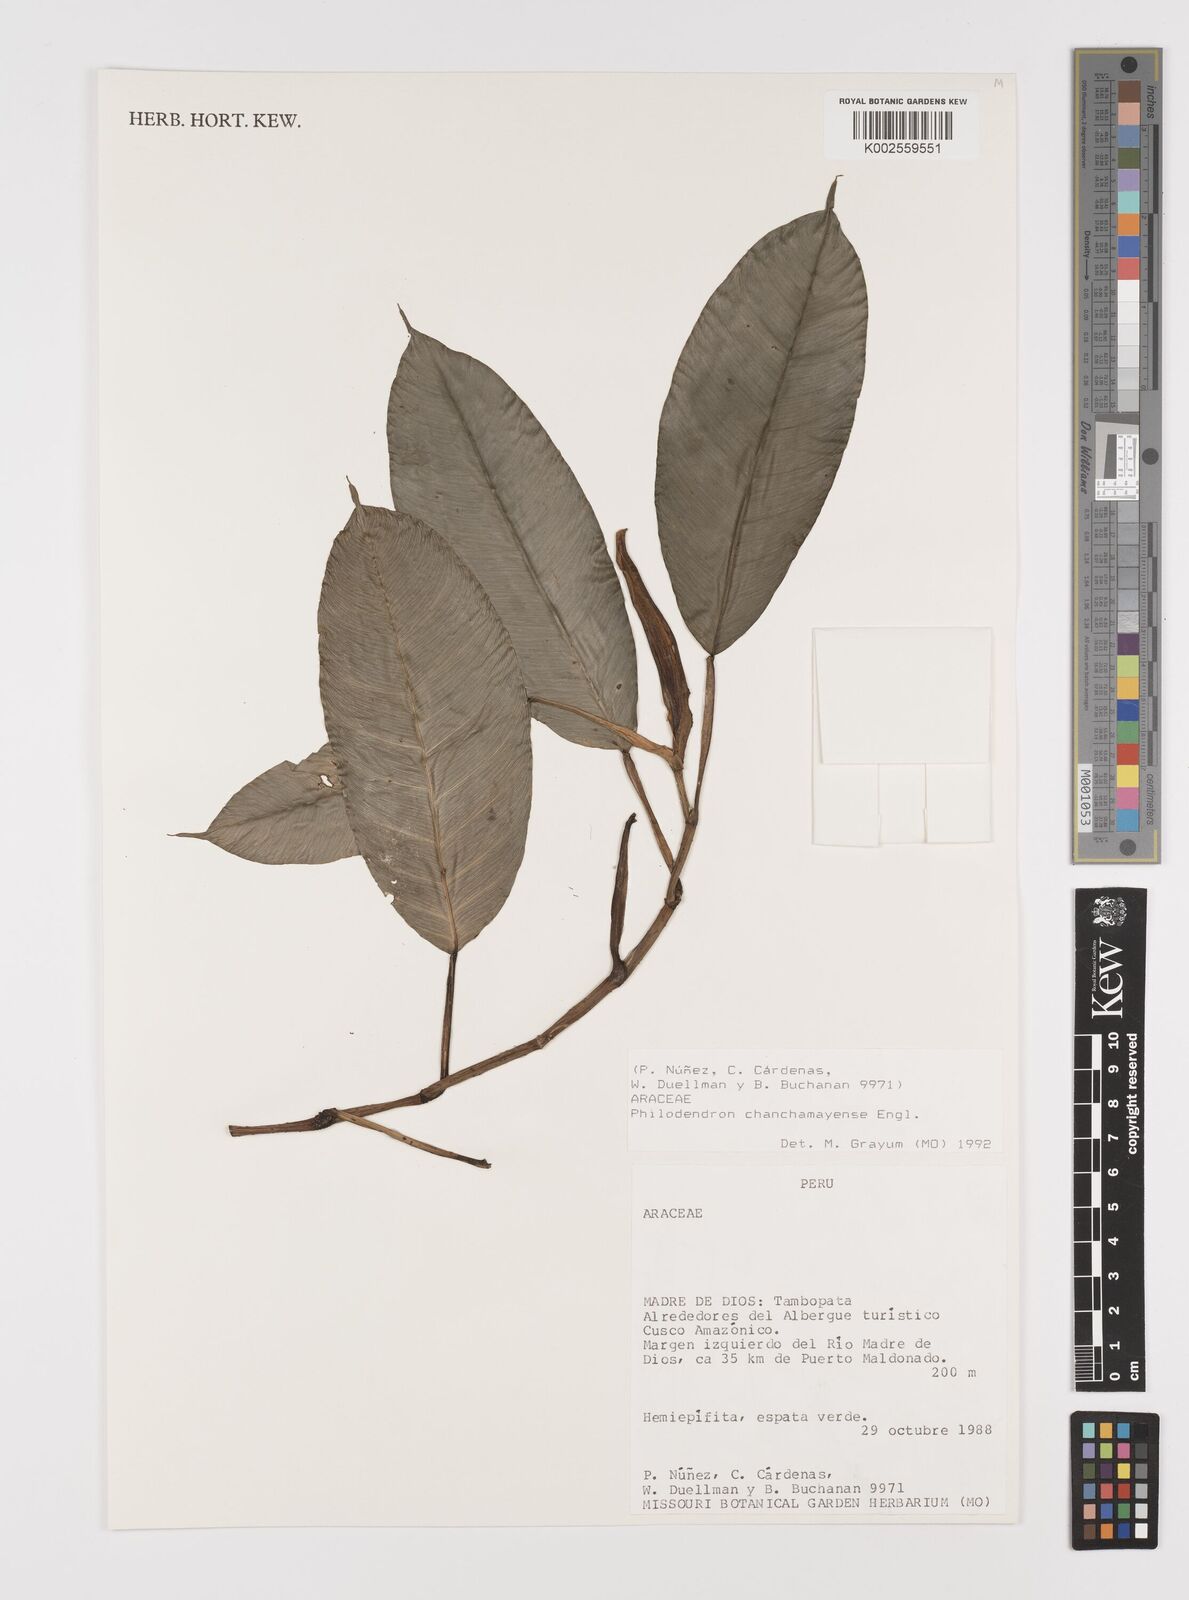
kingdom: Plantae
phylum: Tracheophyta
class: Liliopsida
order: Alismatales
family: Araceae
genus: Philodendron
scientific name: Philodendron chinchamayense
